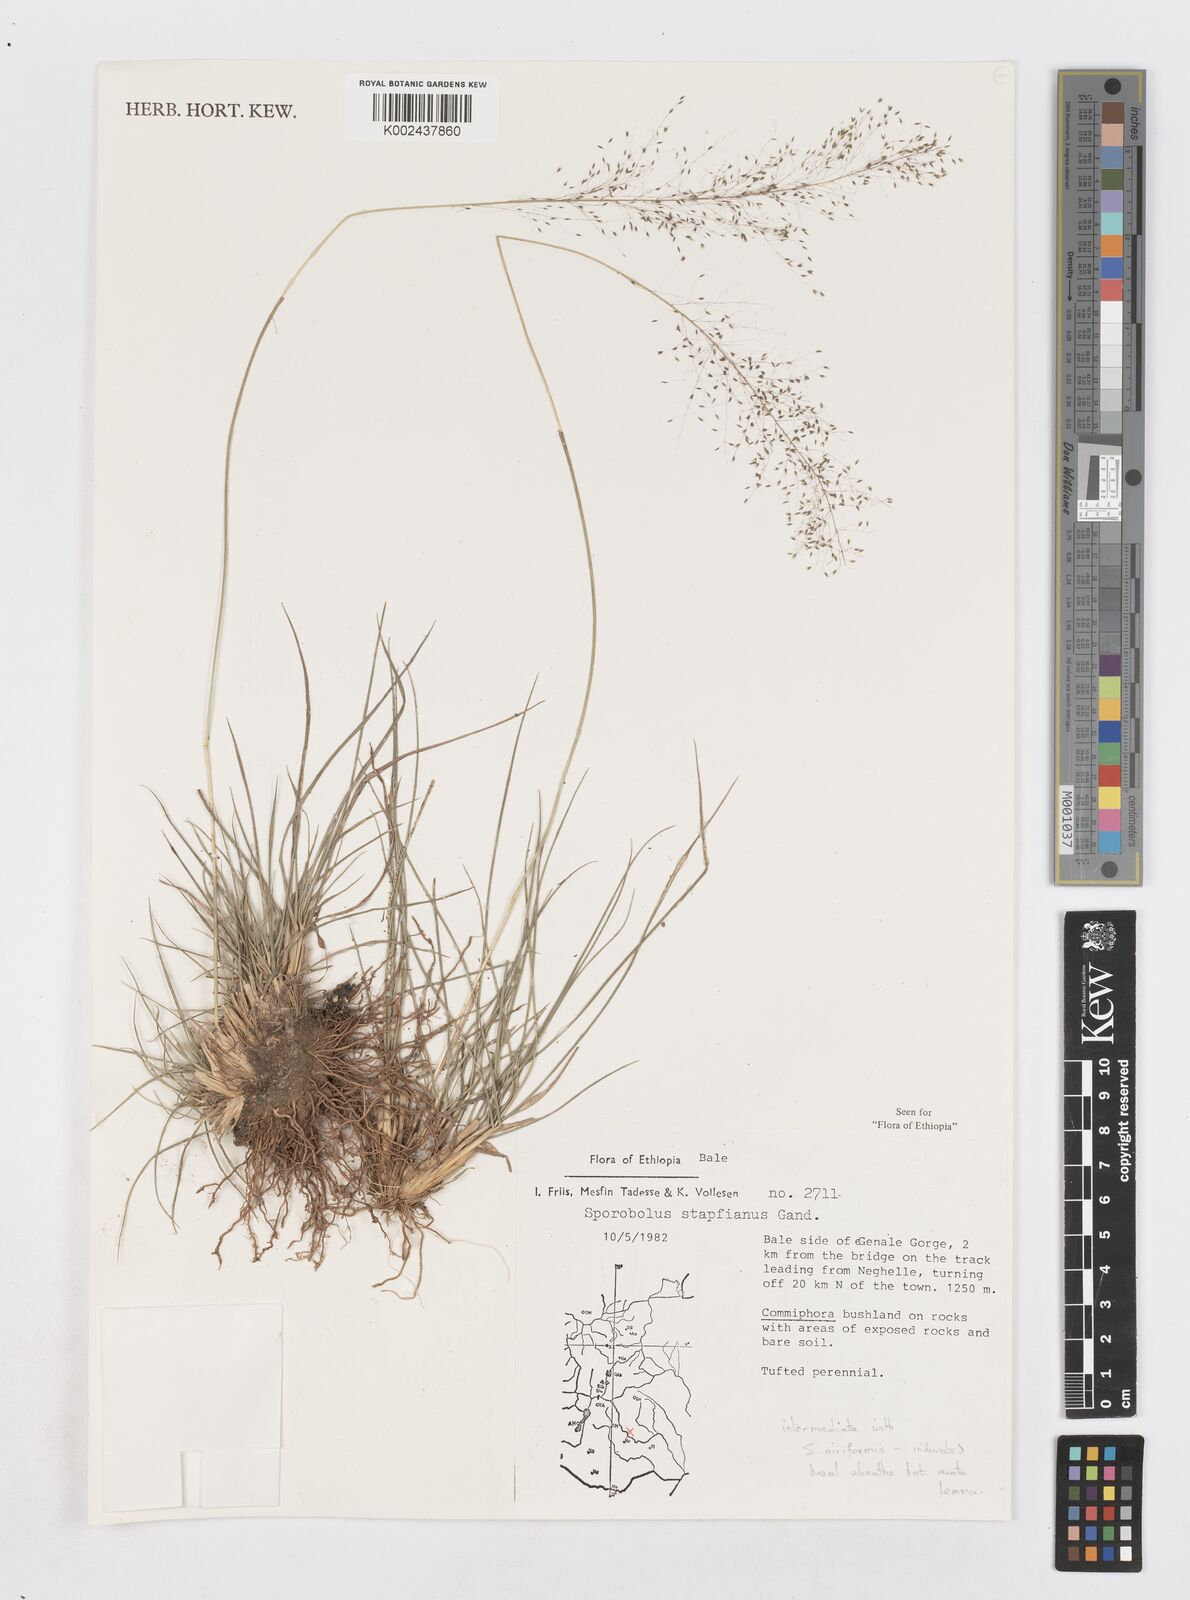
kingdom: Plantae
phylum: Tracheophyta
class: Liliopsida
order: Poales
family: Poaceae
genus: Sporobolus
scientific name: Sporobolus stapfianus
